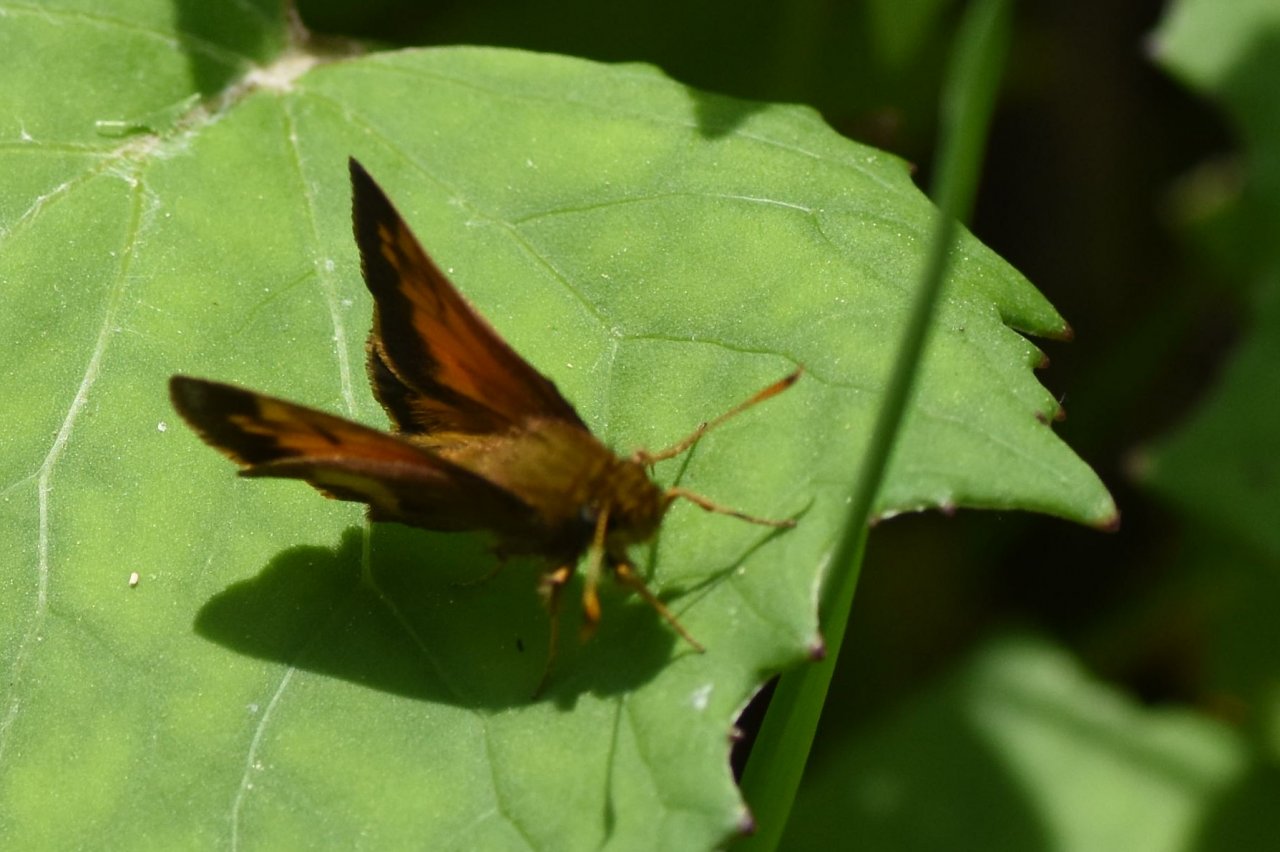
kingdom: Animalia
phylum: Arthropoda
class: Insecta
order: Lepidoptera
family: Hesperiidae
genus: Lon
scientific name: Lon hobomok
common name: Hobomok Skipper
